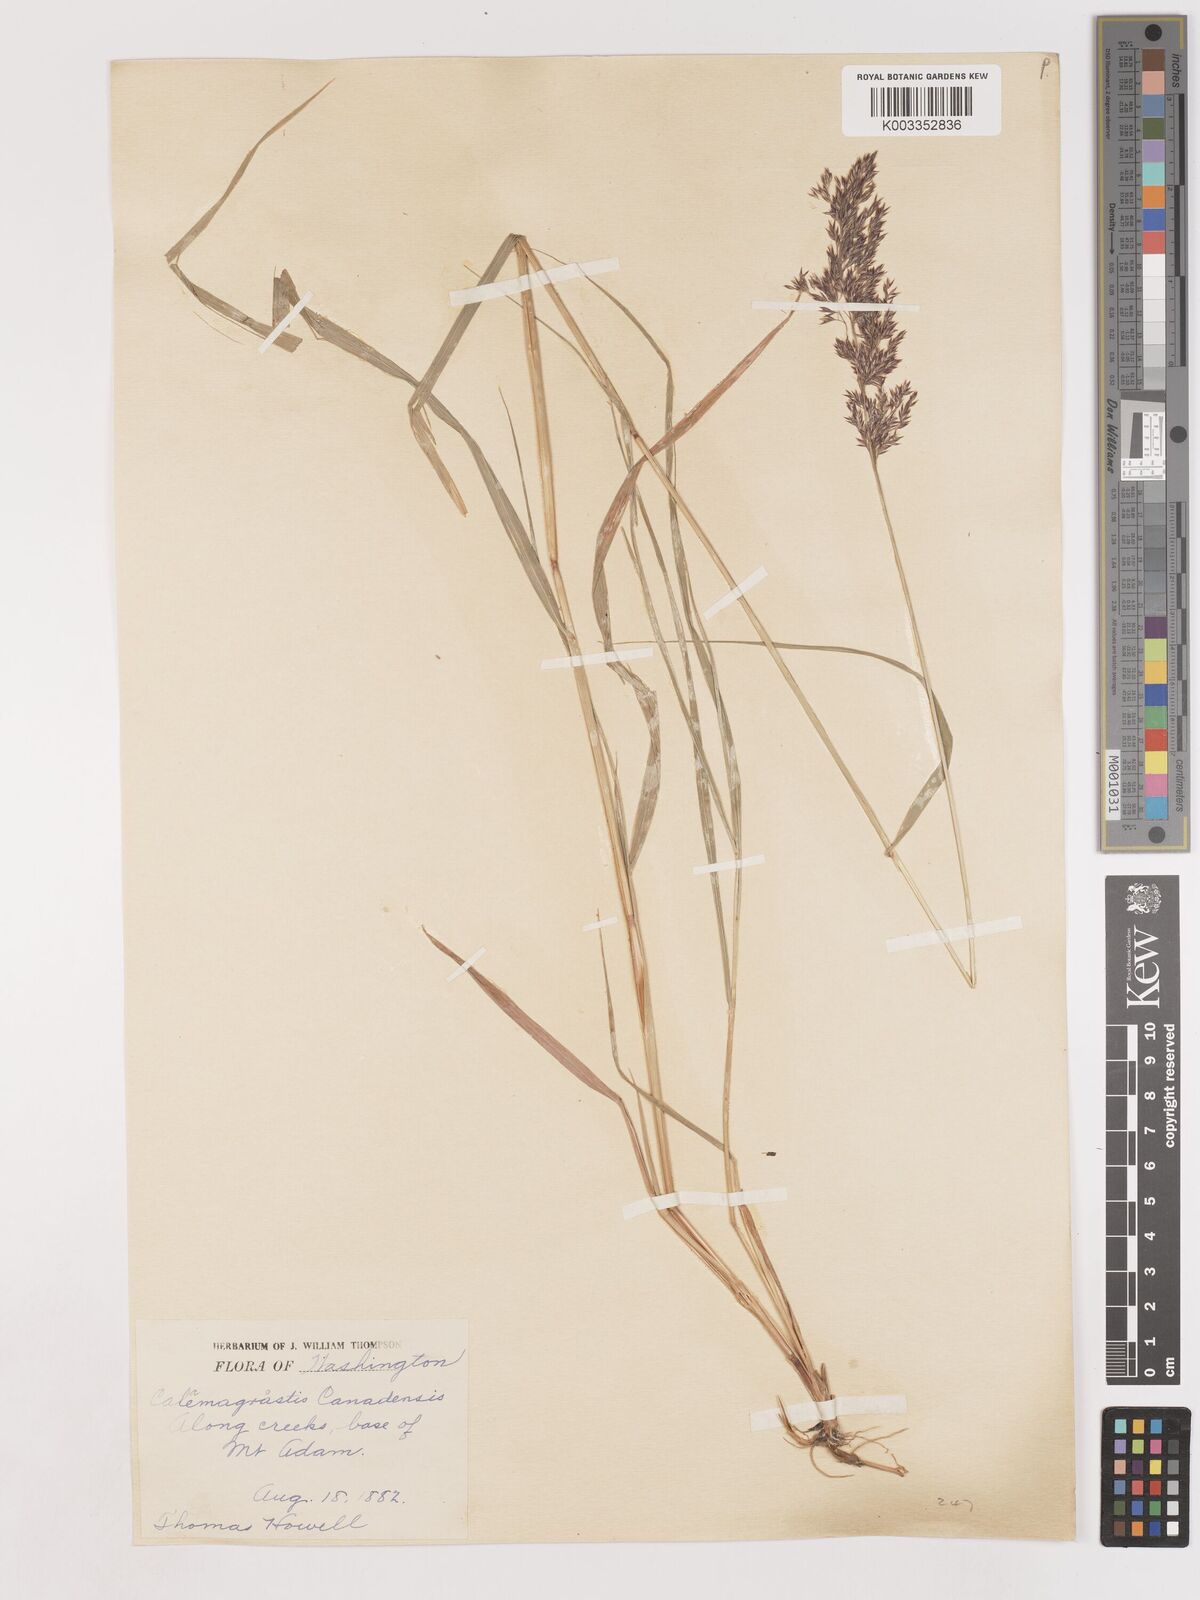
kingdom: Plantae
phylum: Tracheophyta
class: Liliopsida
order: Poales
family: Poaceae
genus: Calamagrostis
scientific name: Calamagrostis canadensis
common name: Canada bluejoint
